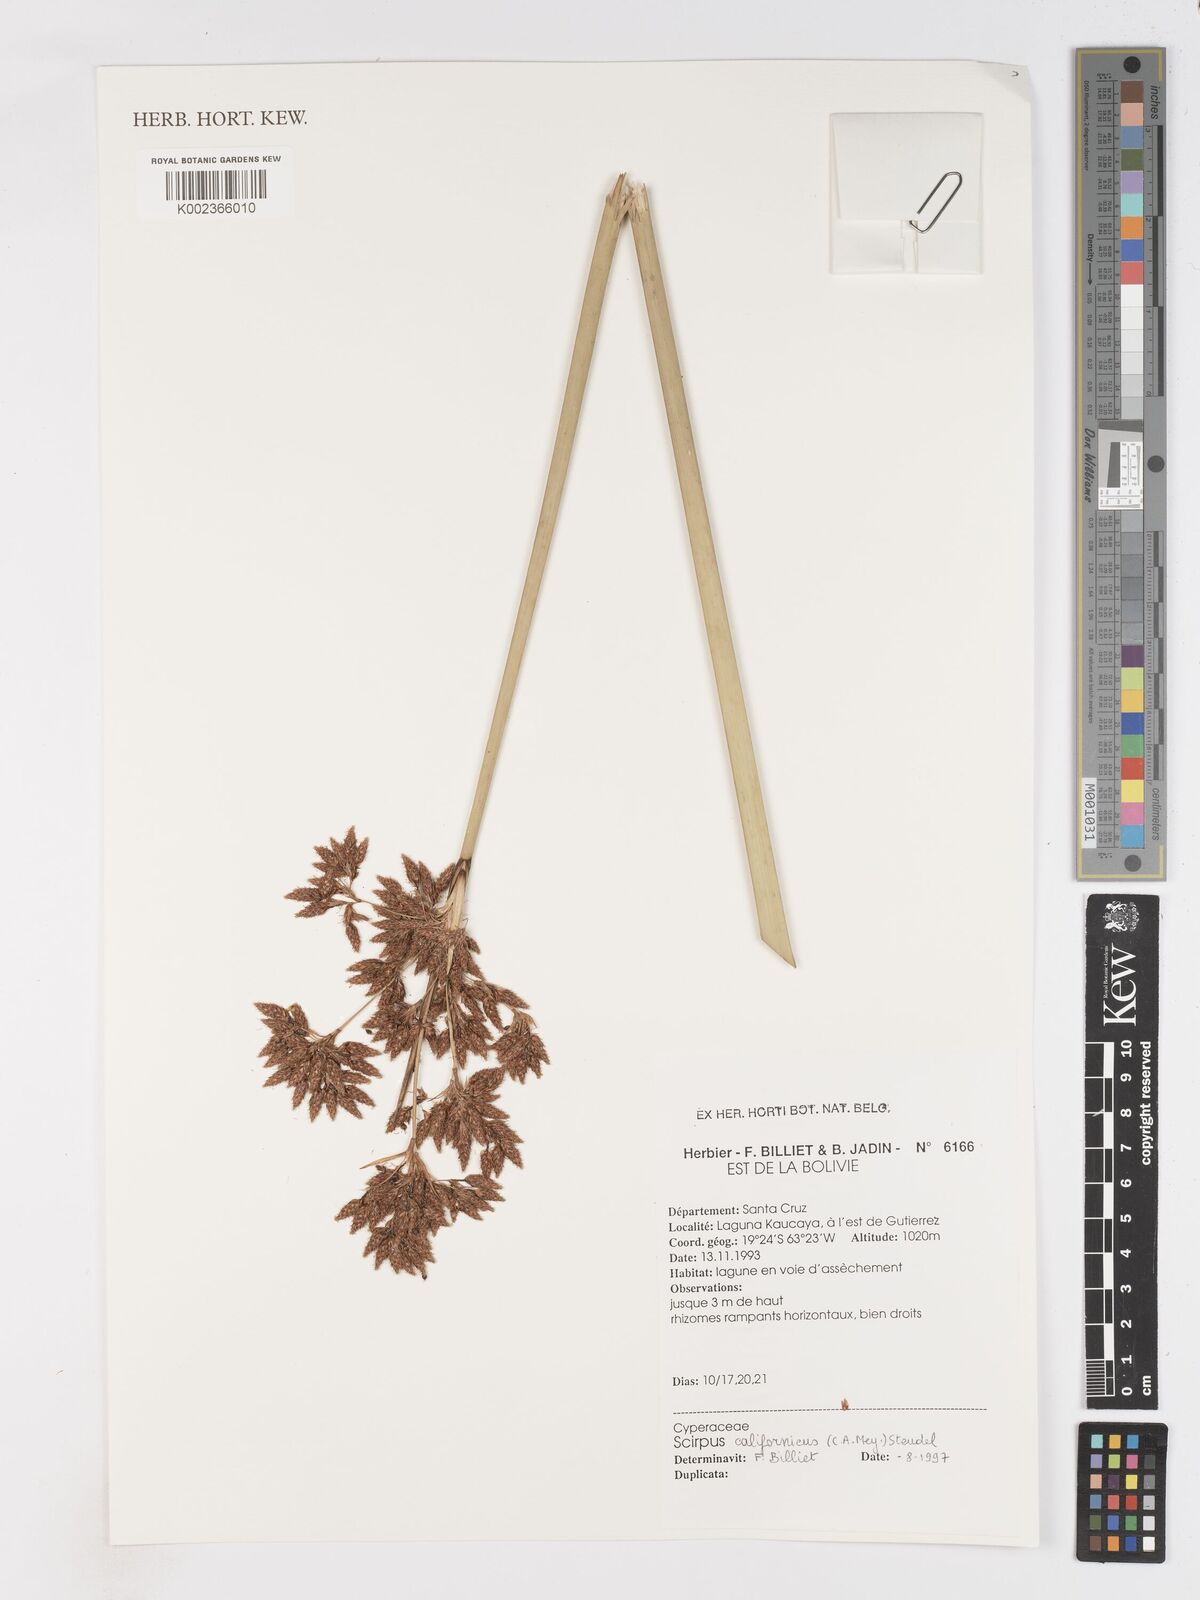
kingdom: Plantae
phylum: Tracheophyta
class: Liliopsida
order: Poales
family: Cyperaceae
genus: Schoenoplectus
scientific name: Schoenoplectus californicus
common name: California bulrush
